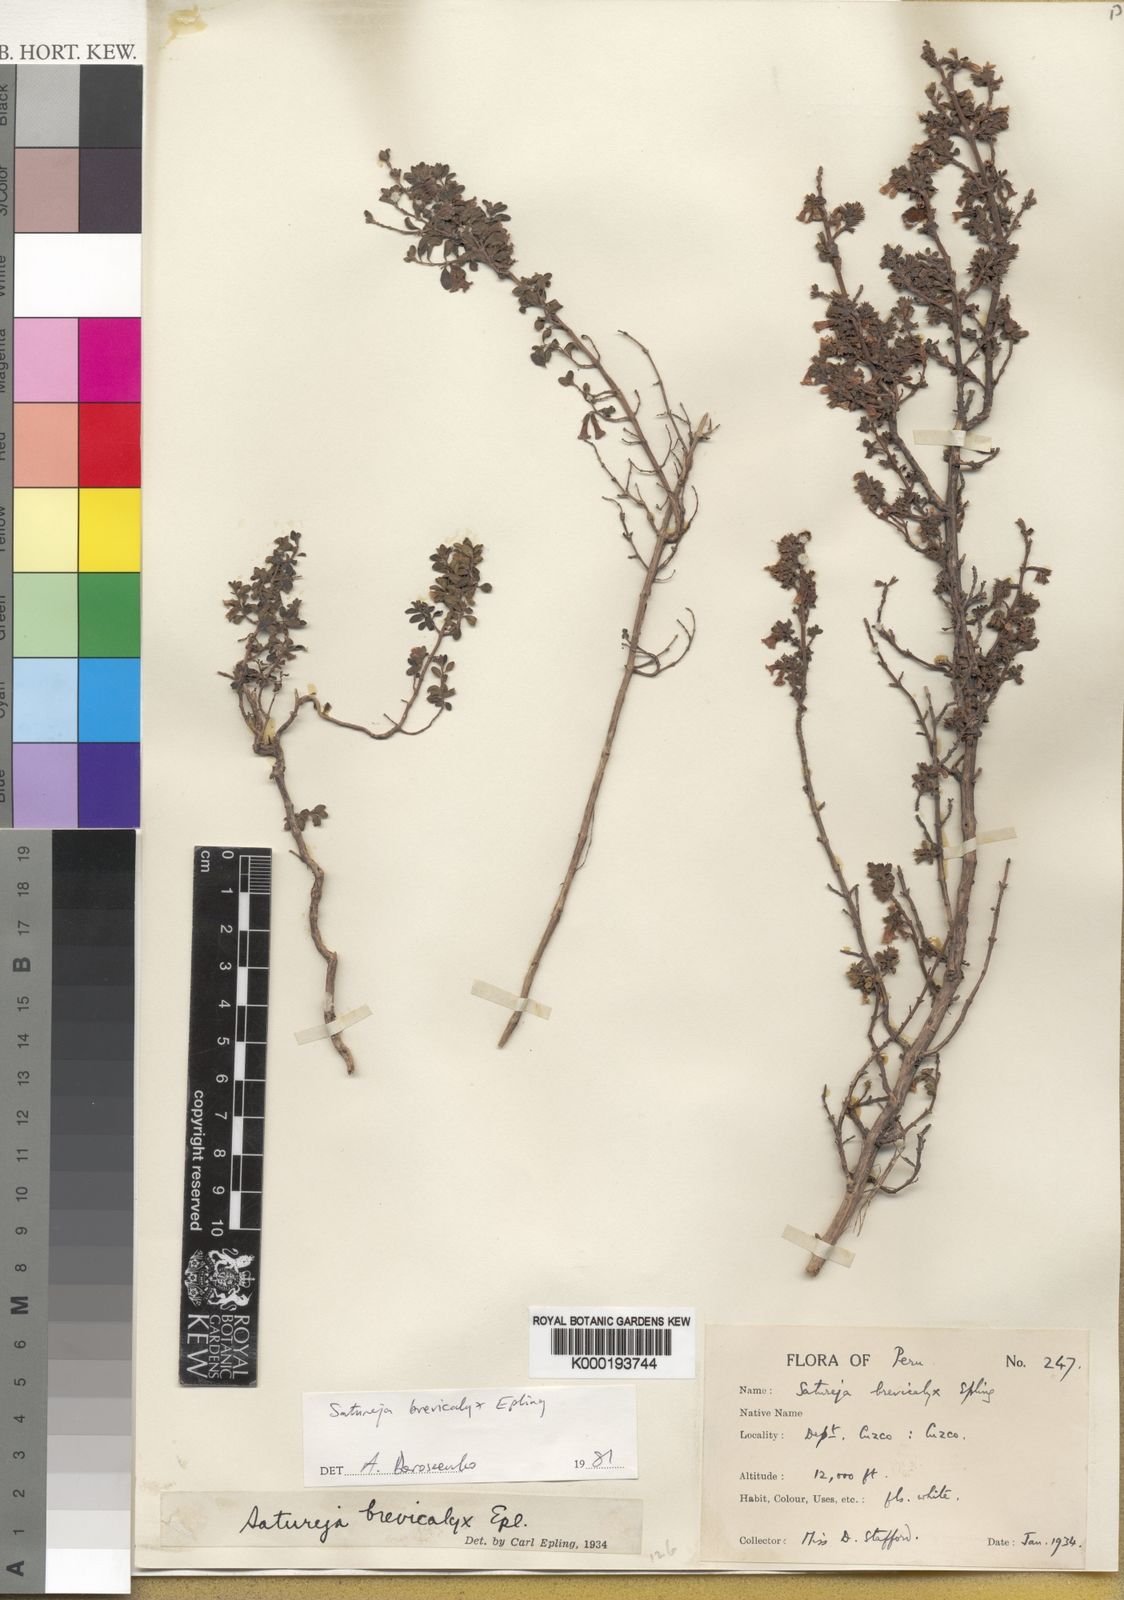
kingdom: Plantae
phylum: Tracheophyta
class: Magnoliopsida
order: Lamiales
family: Lamiaceae
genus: Clinopodium
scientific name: Clinopodium brevicalyx
